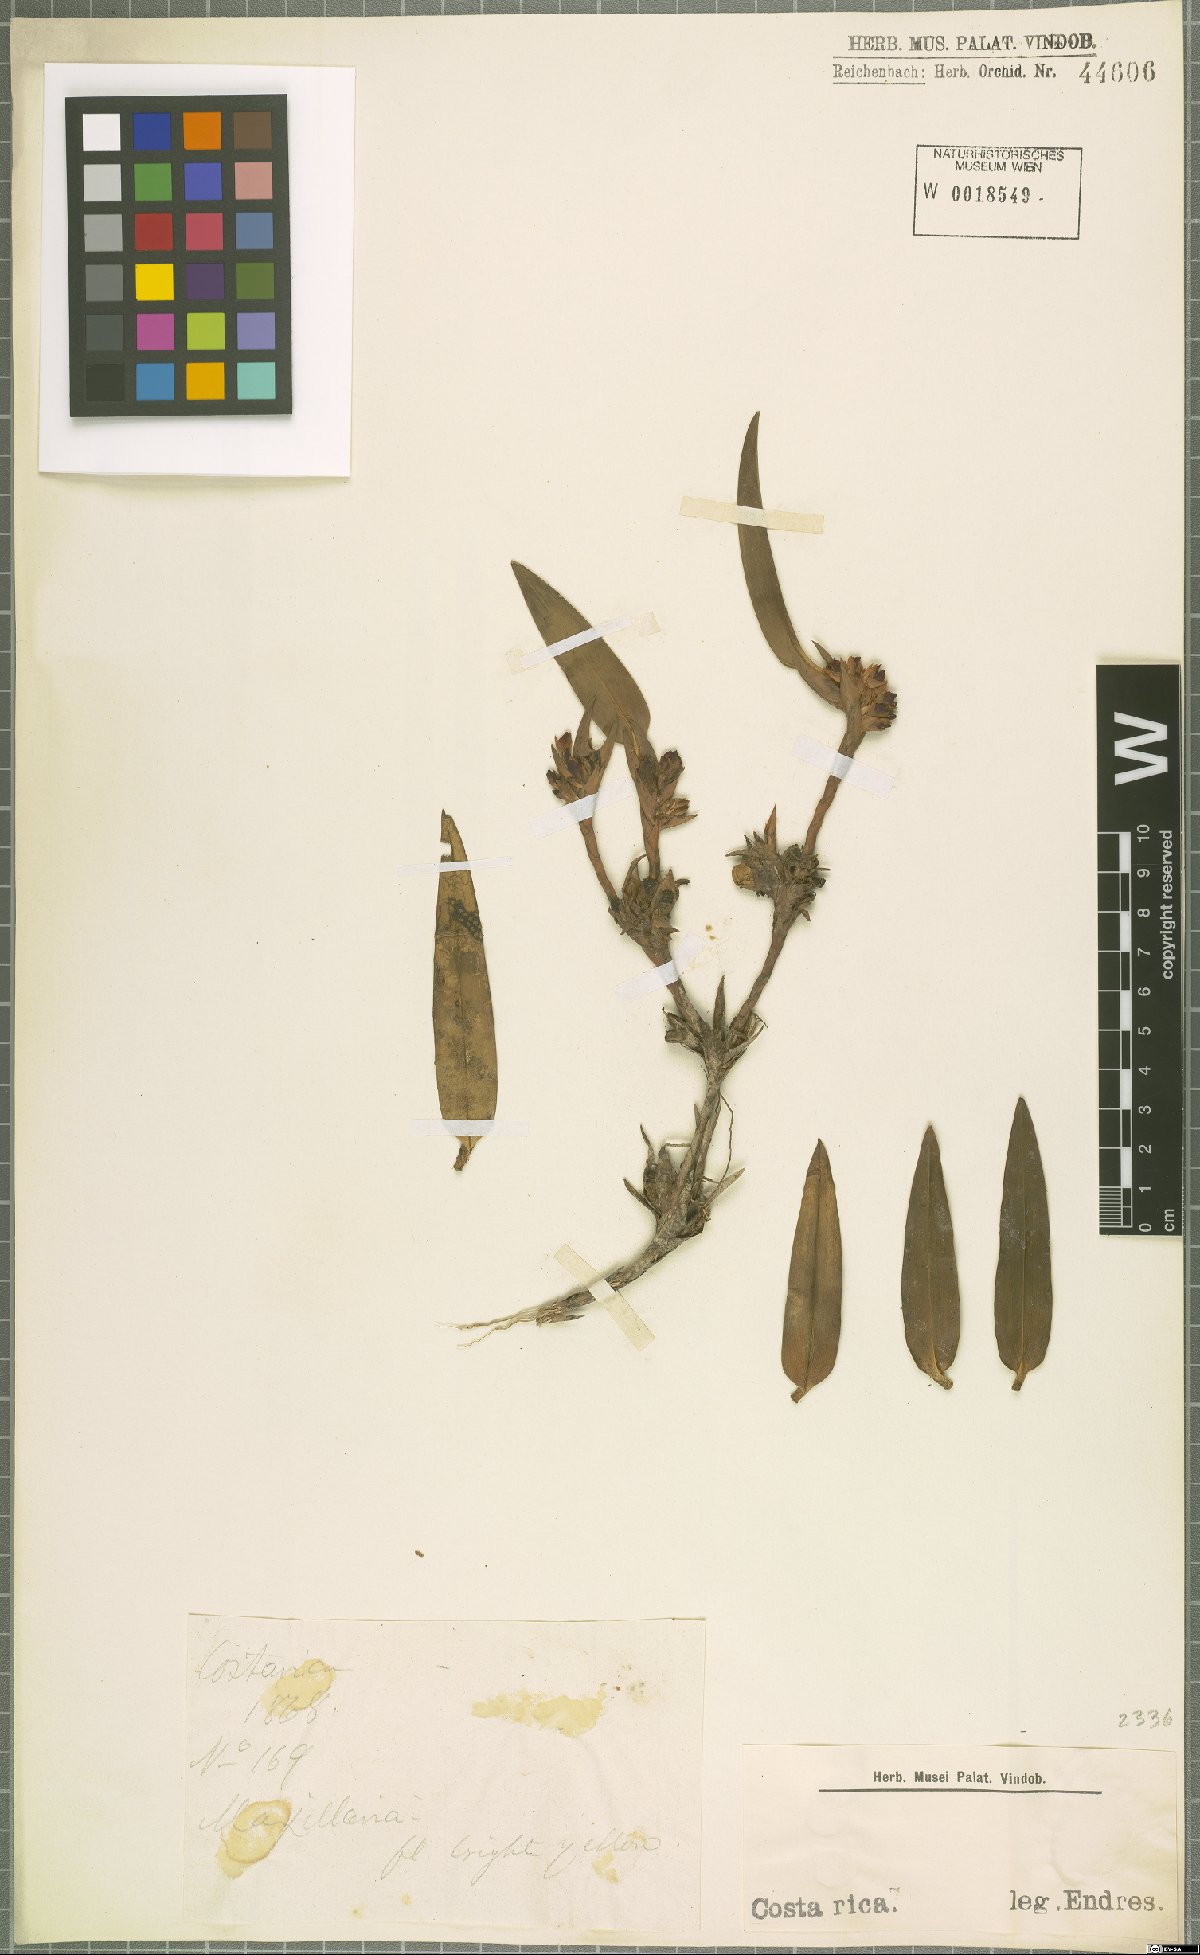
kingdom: Plantae
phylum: Tracheophyta
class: Liliopsida
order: Asparagales
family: Orchidaceae
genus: Maxillaria
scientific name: Maxillaria
